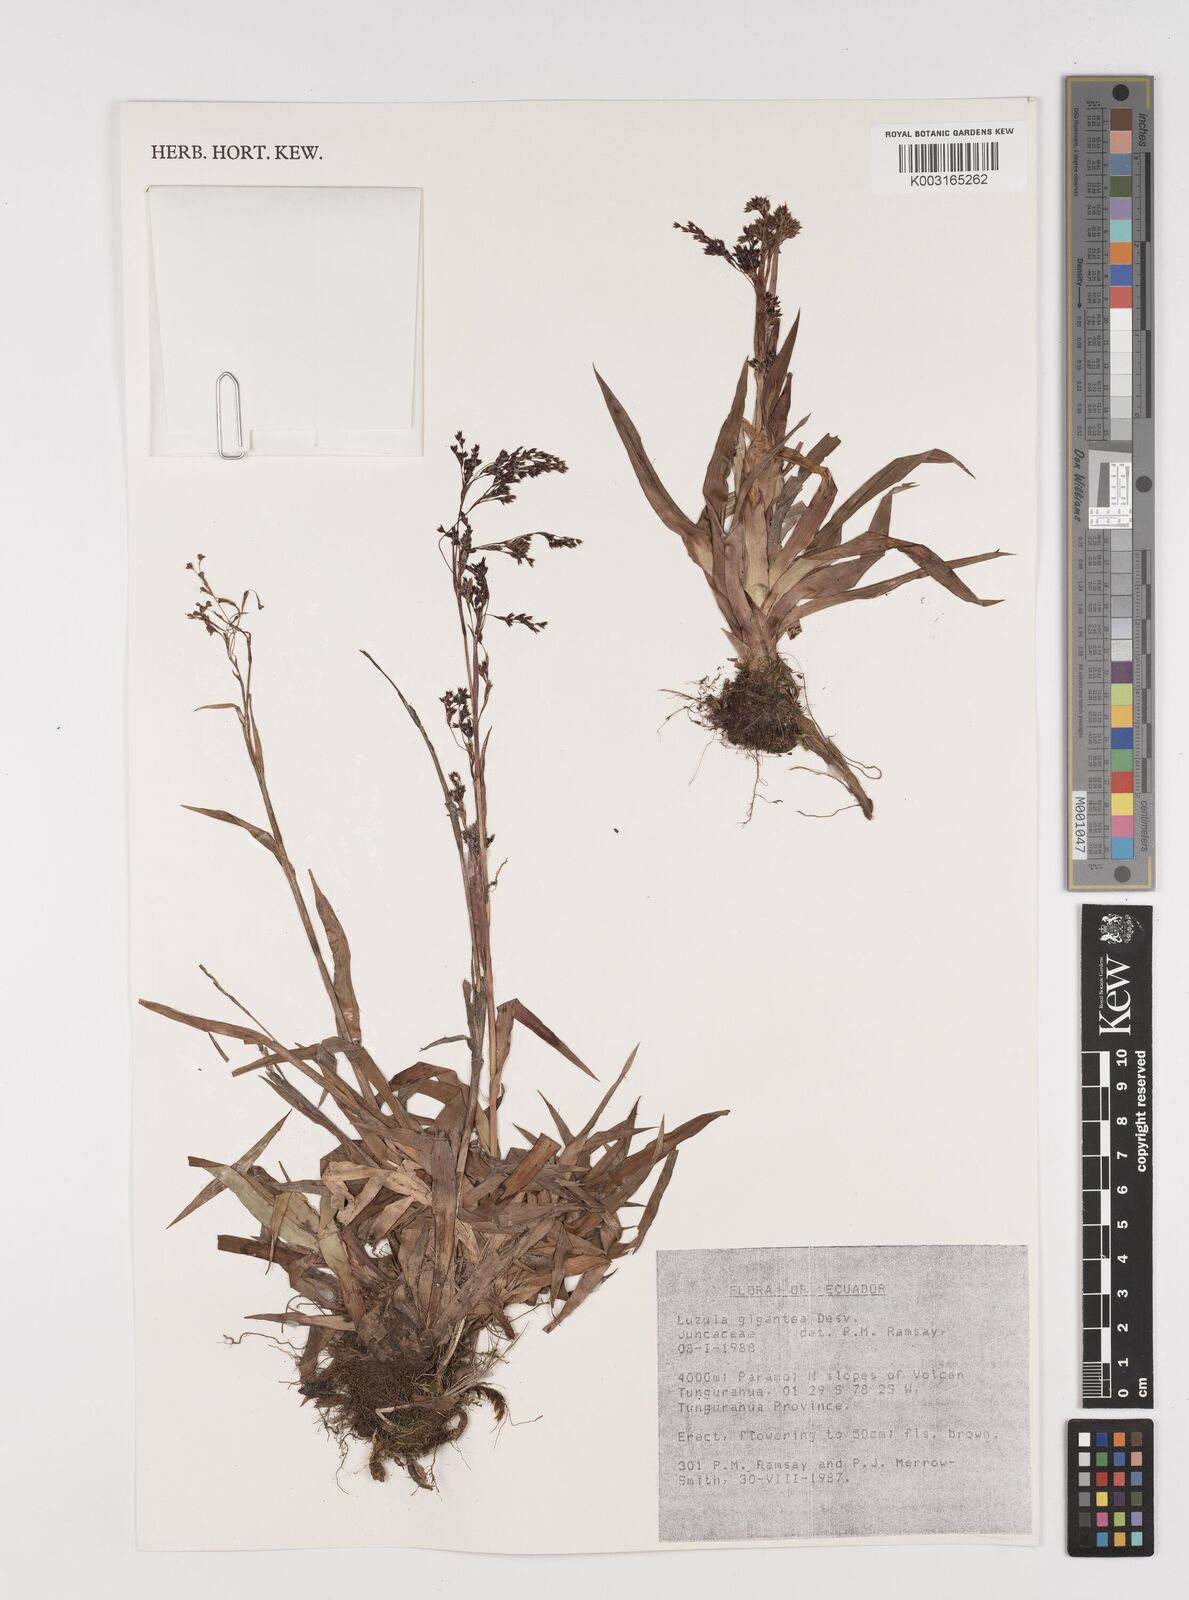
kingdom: Plantae
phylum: Tracheophyta
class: Liliopsida
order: Poales
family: Juncaceae
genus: Luzula
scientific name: Luzula gigantea
